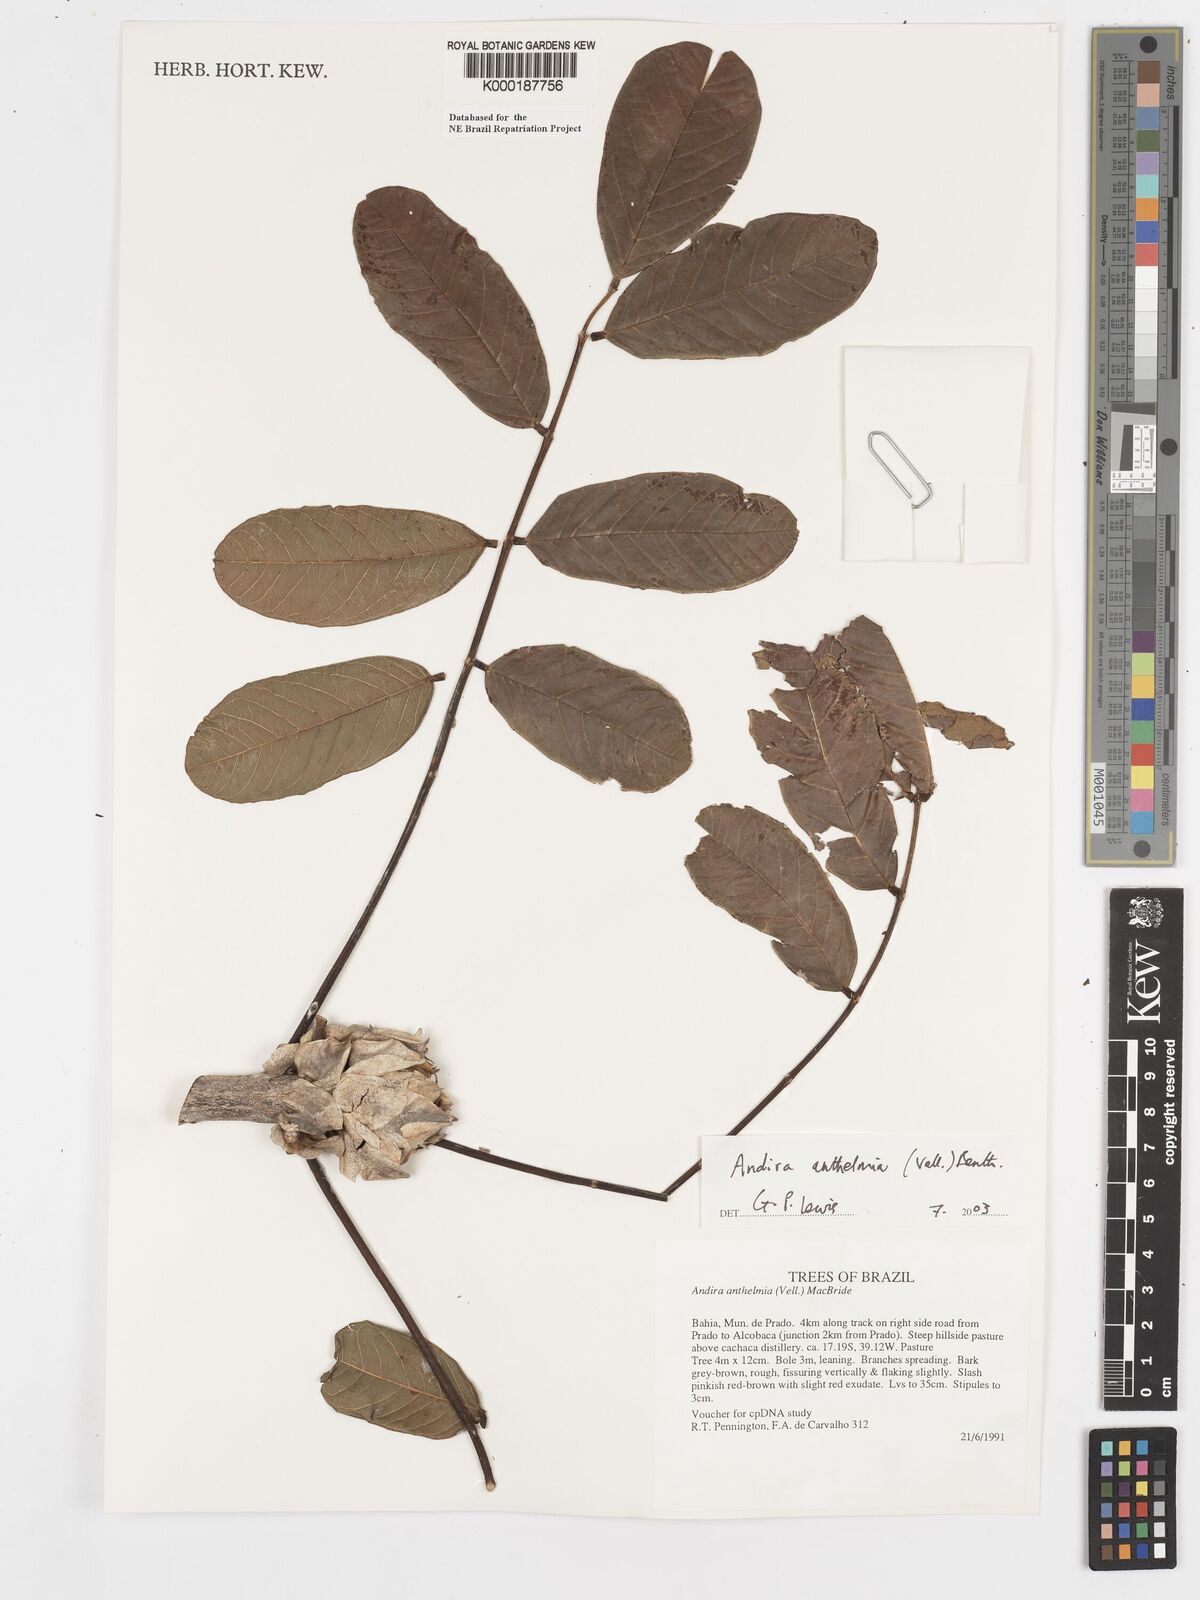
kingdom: Plantae
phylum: Tracheophyta
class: Magnoliopsida
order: Fabales
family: Fabaceae
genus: Andira
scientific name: Andira
